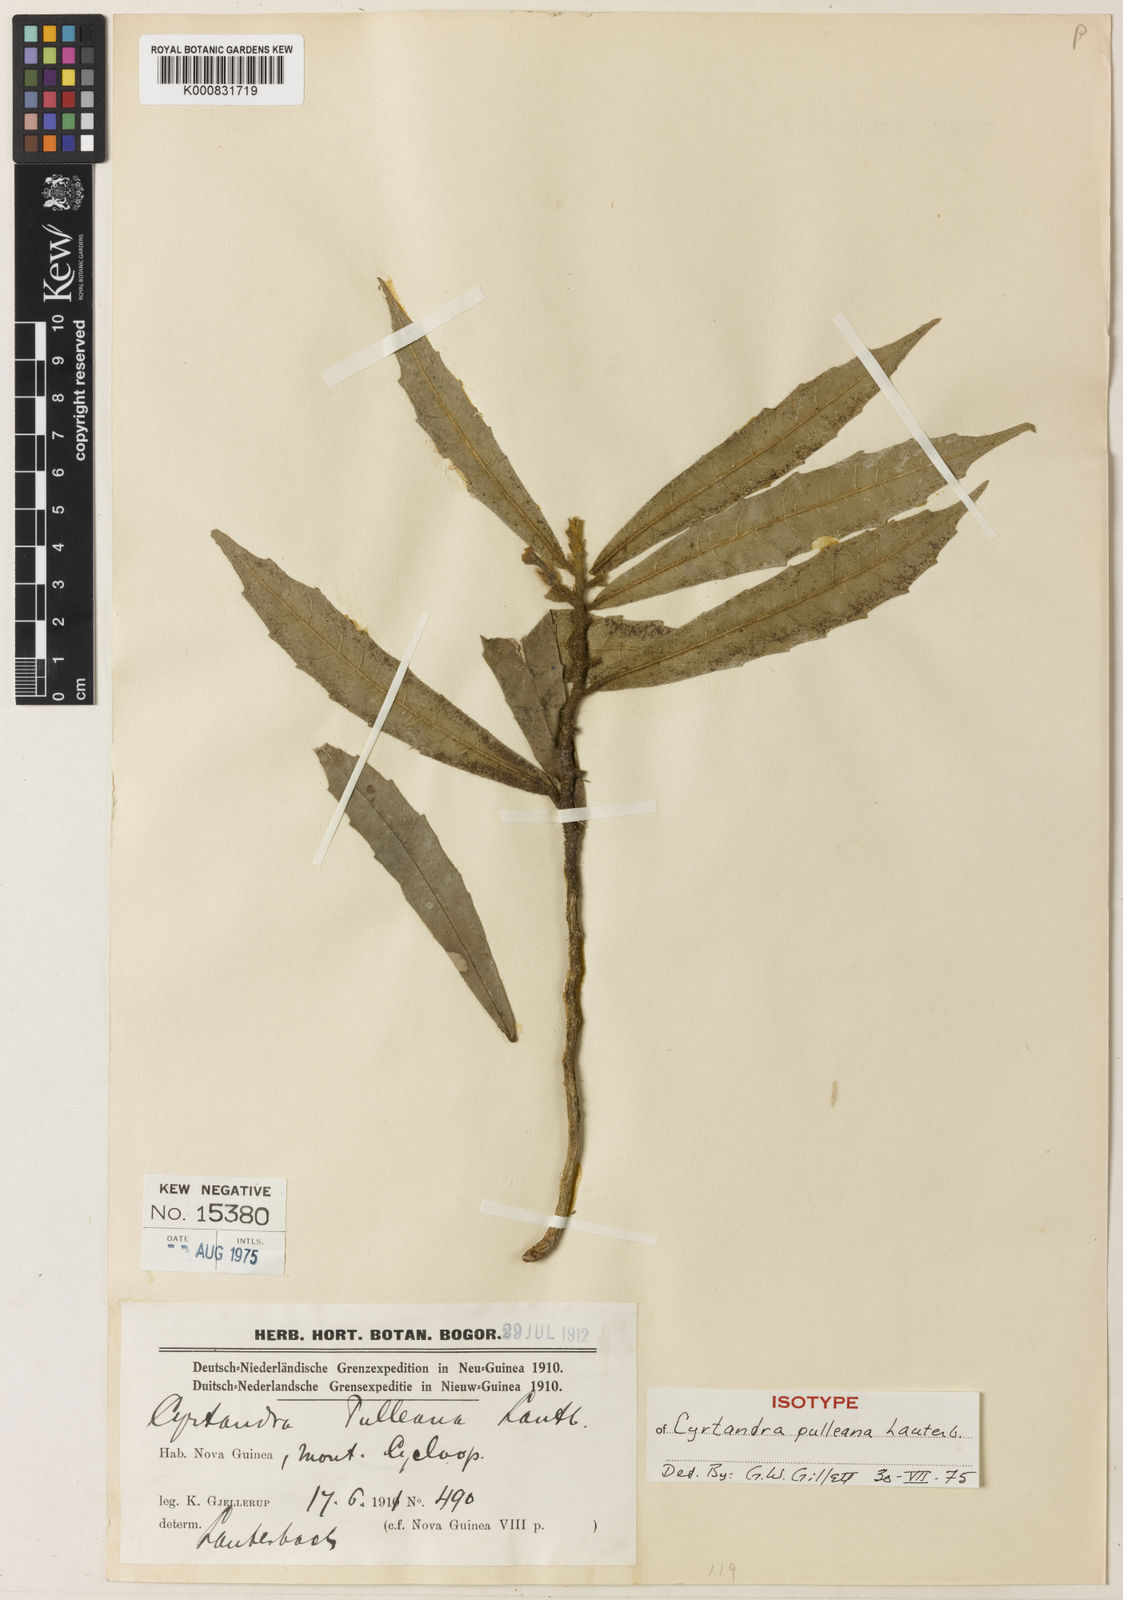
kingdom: Plantae
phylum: Tracheophyta
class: Magnoliopsida
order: Lamiales
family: Gesneriaceae
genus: Cyrtandra
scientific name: Cyrtandra pulleana
